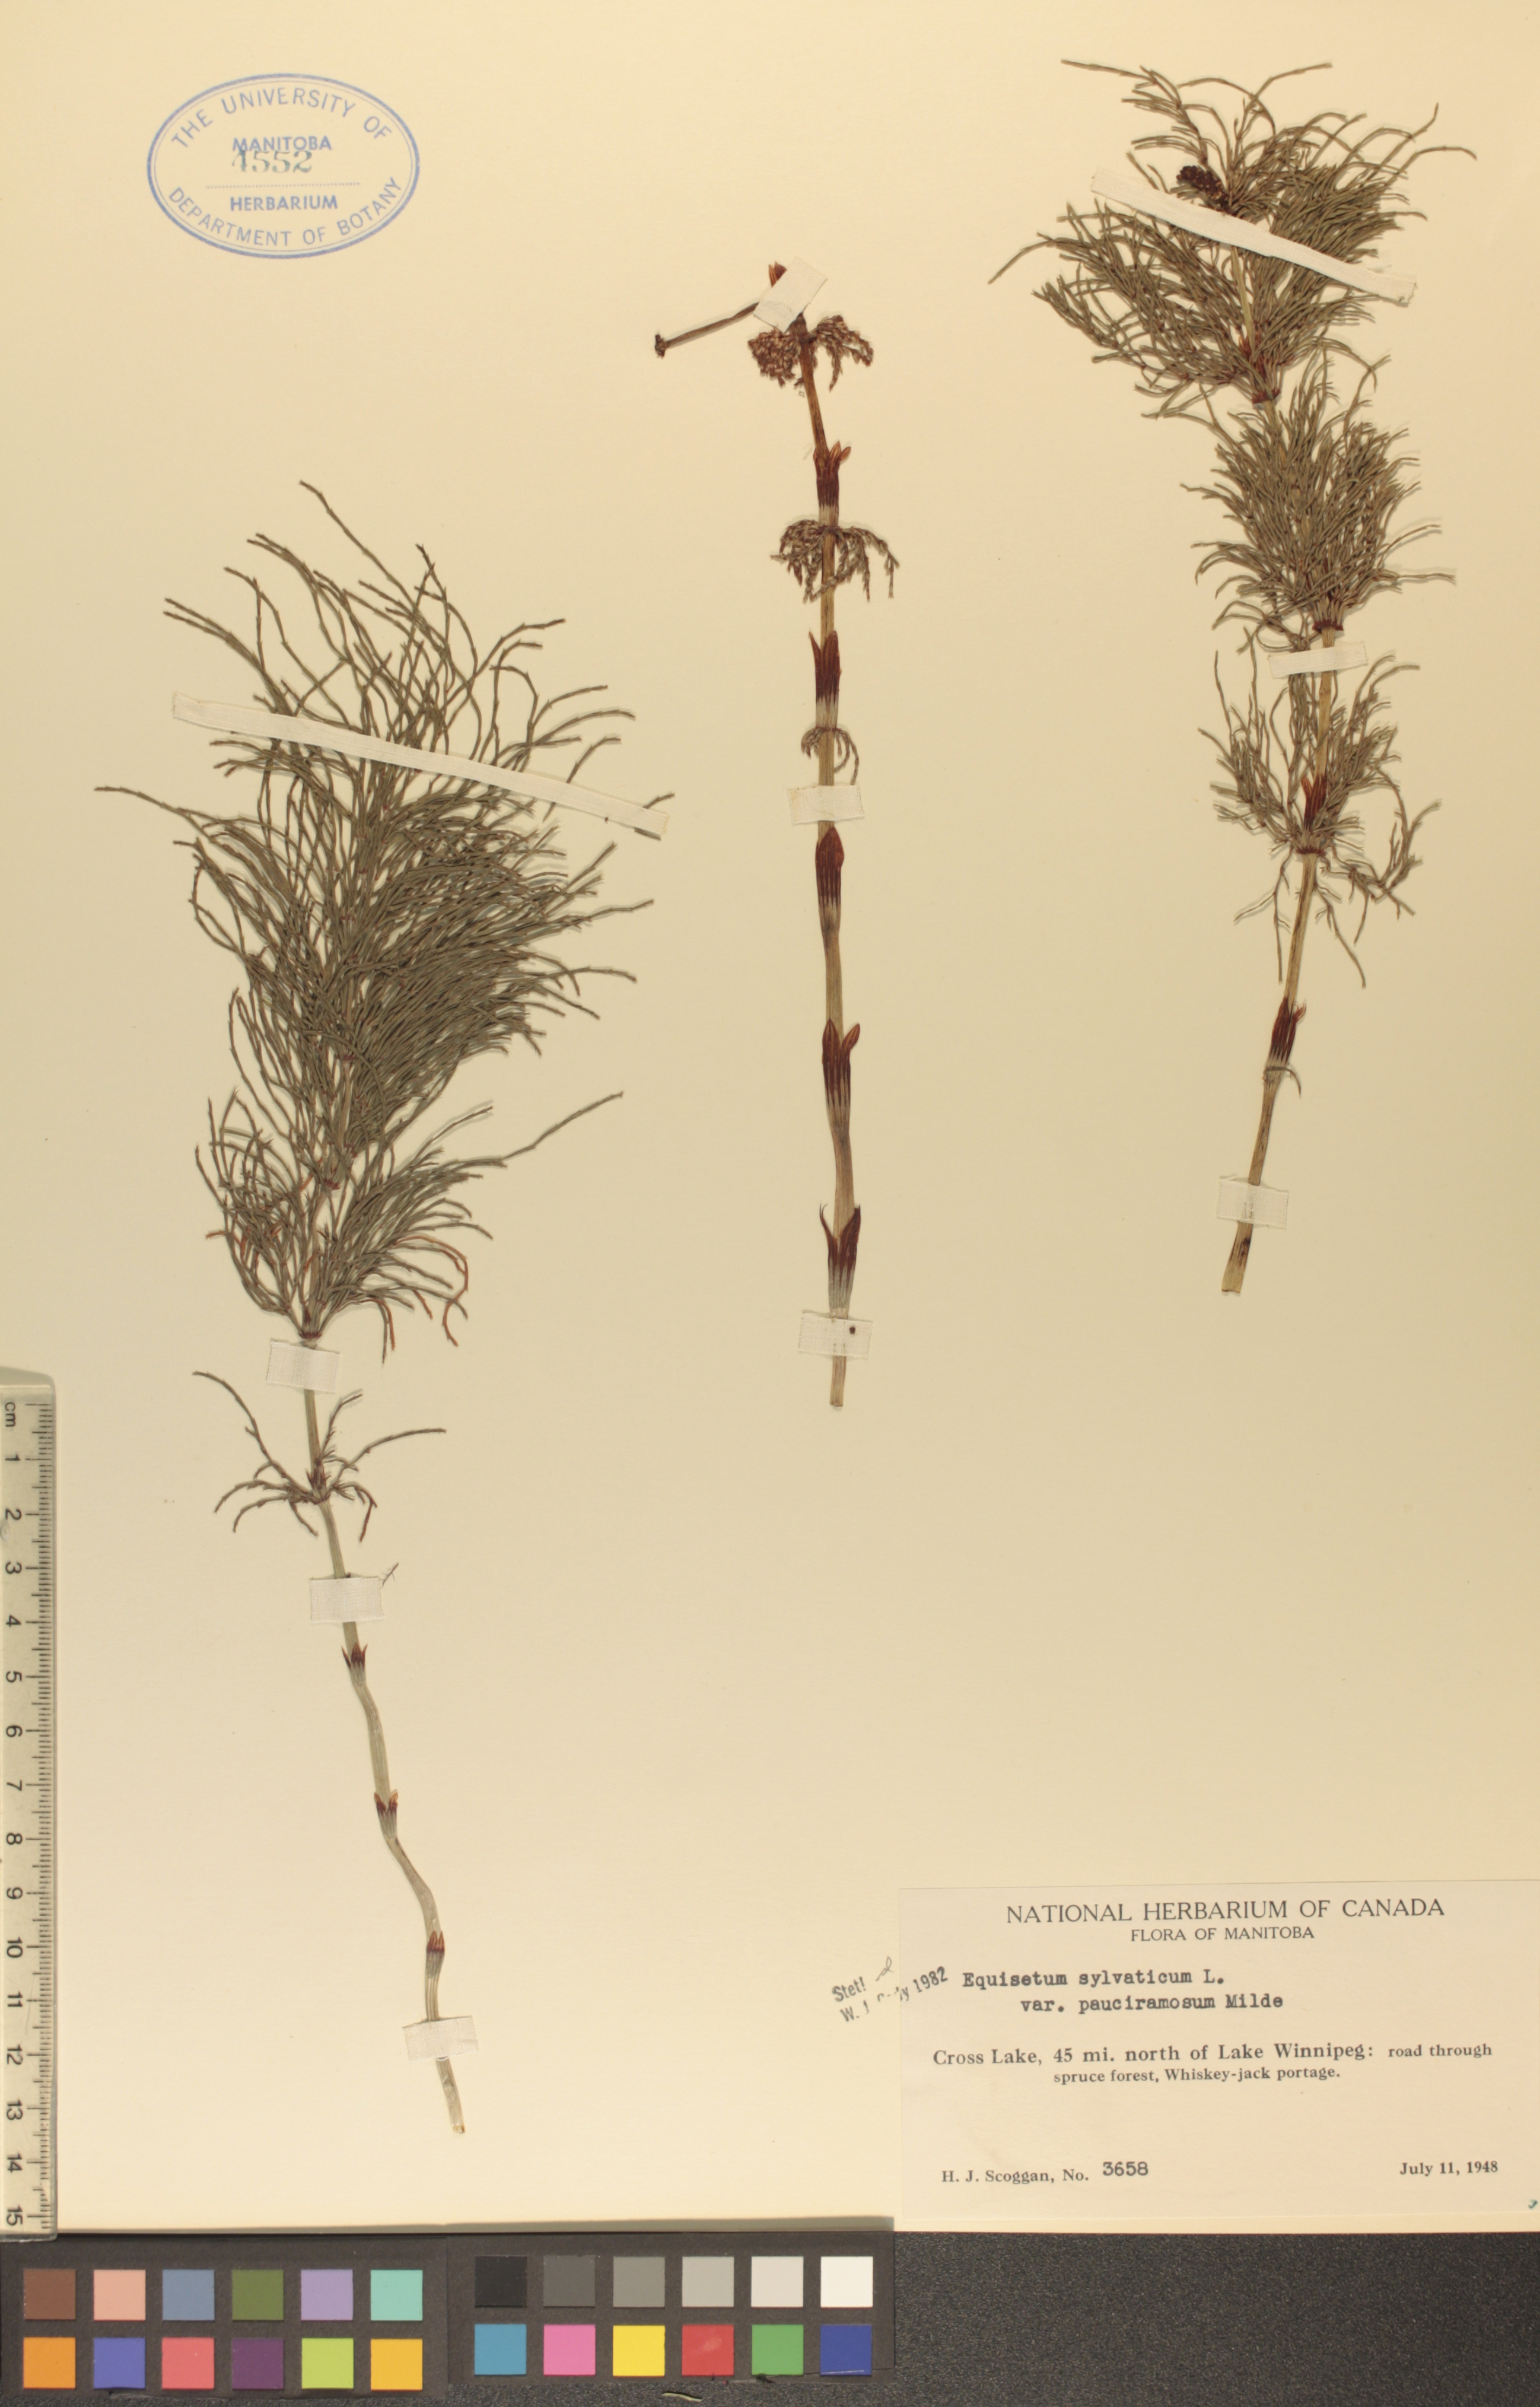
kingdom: Plantae
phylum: Tracheophyta
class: Polypodiopsida
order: Equisetales
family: Equisetaceae
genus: Equisetum
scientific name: Equisetum sylvaticum
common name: Wood horsetail
